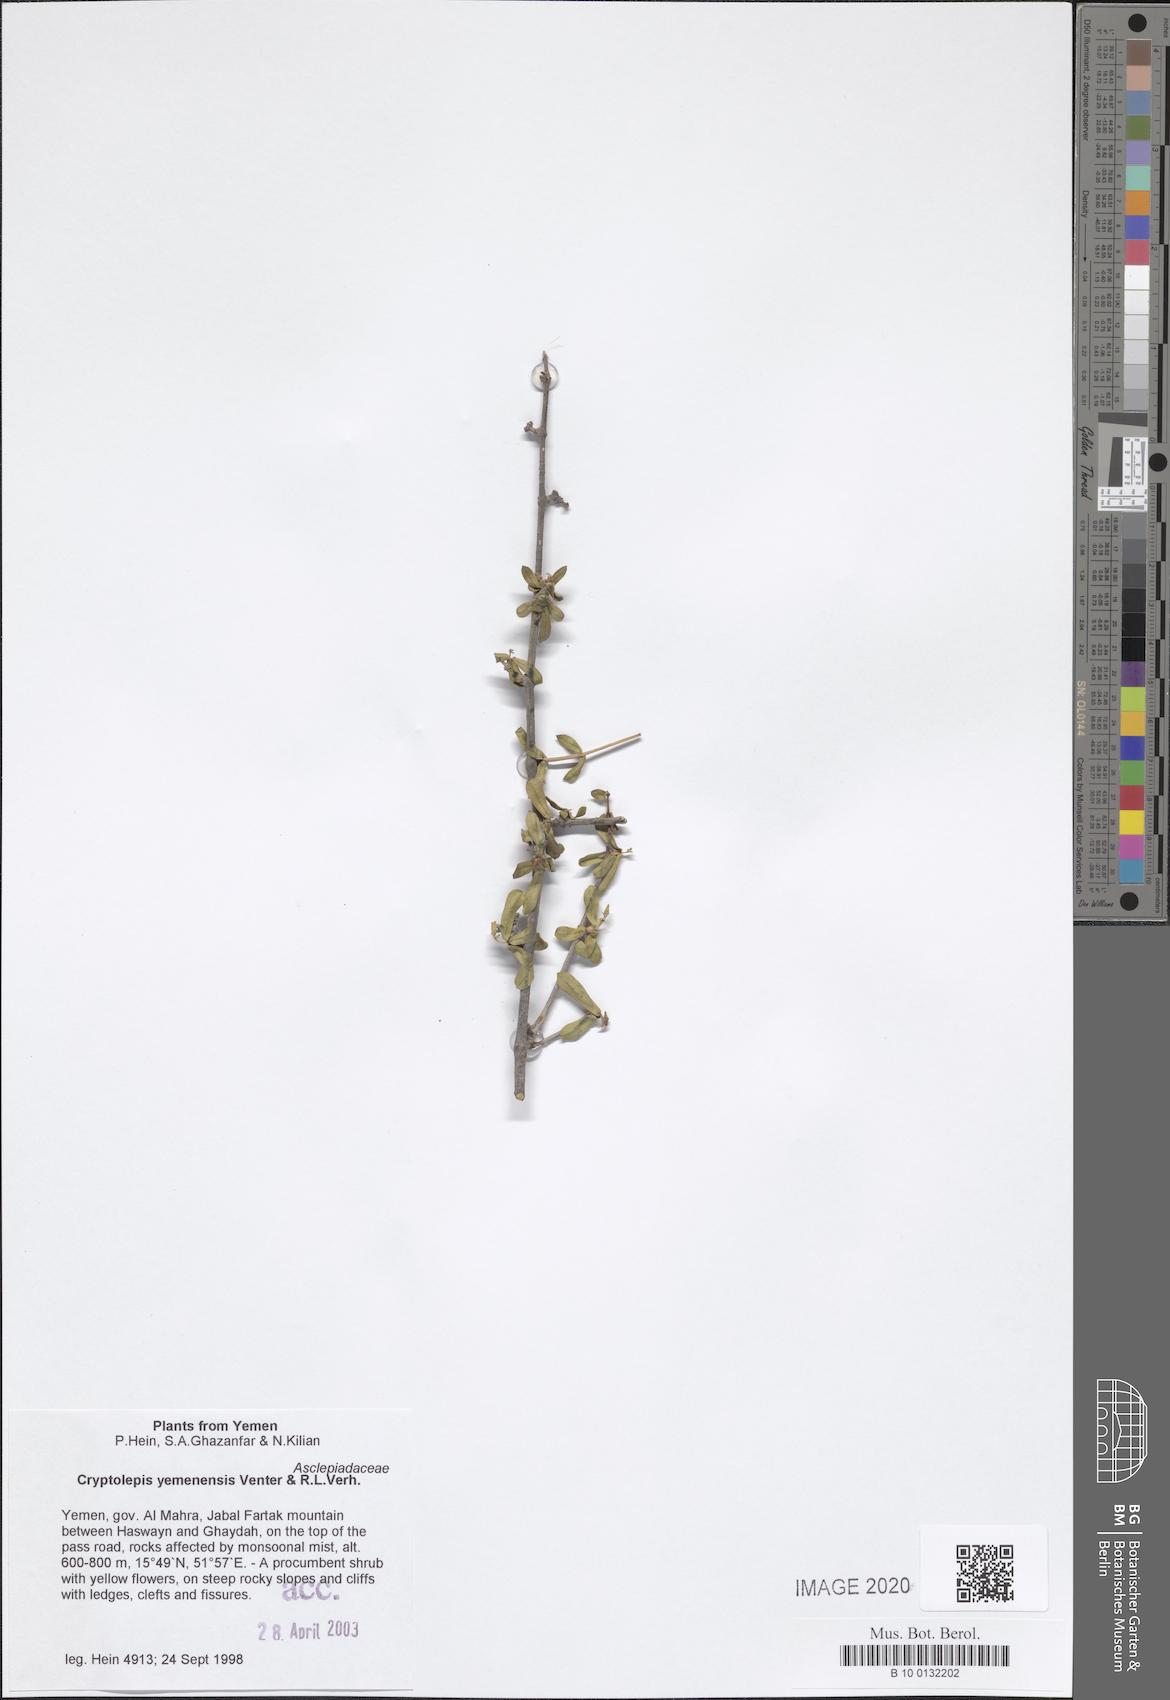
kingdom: Plantae
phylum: Tracheophyta
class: Magnoliopsida
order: Gentianales
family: Apocynaceae
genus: Cryptolepis
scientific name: Cryptolepis yemenensis
